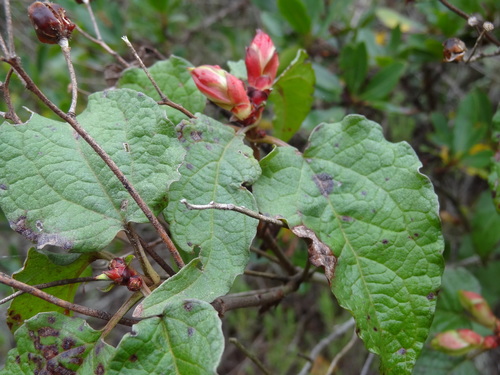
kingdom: Plantae
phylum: Tracheophyta
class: Magnoliopsida
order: Malvales
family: Cistaceae
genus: Cistus
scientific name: Cistus populifolius
